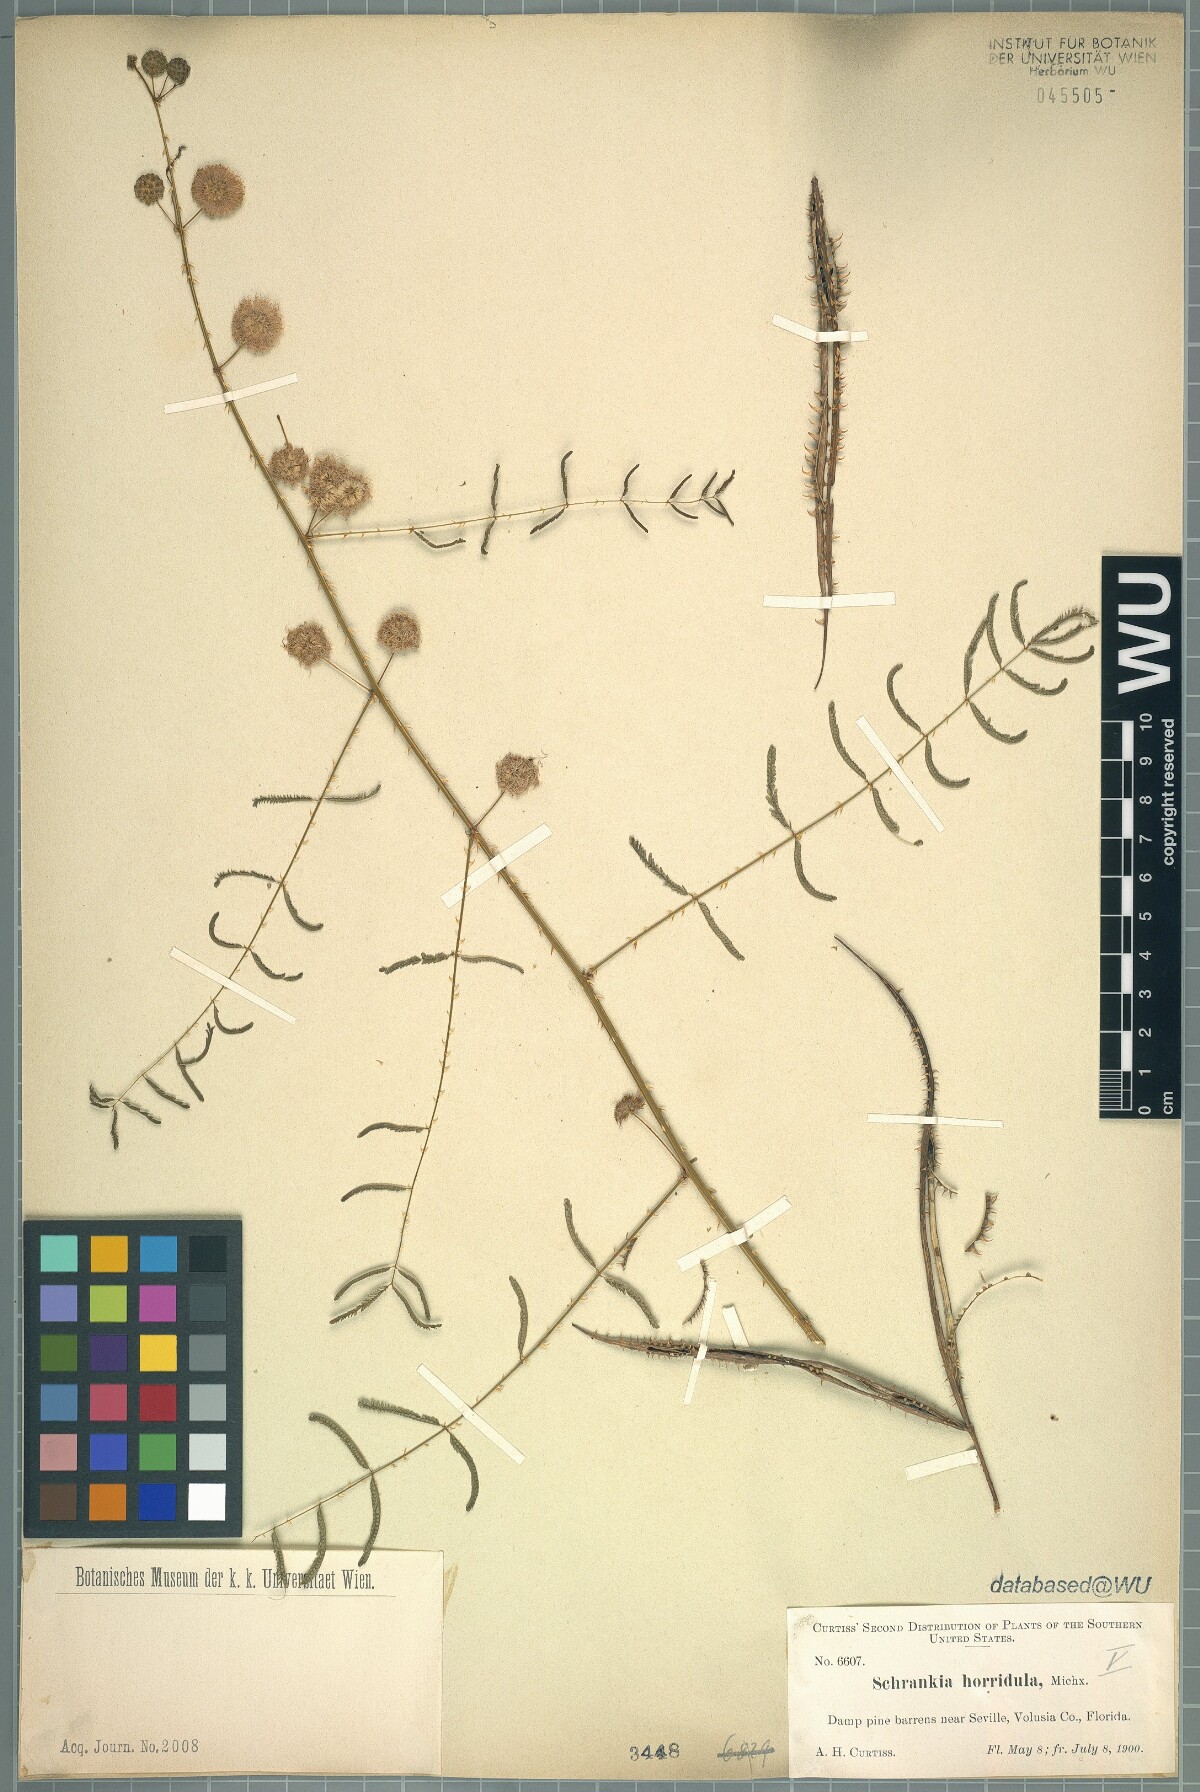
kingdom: Plantae
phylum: Tracheophyta
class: Magnoliopsida
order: Fabales
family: Fabaceae
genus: Mimosa
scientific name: Mimosa quadrivalvis
